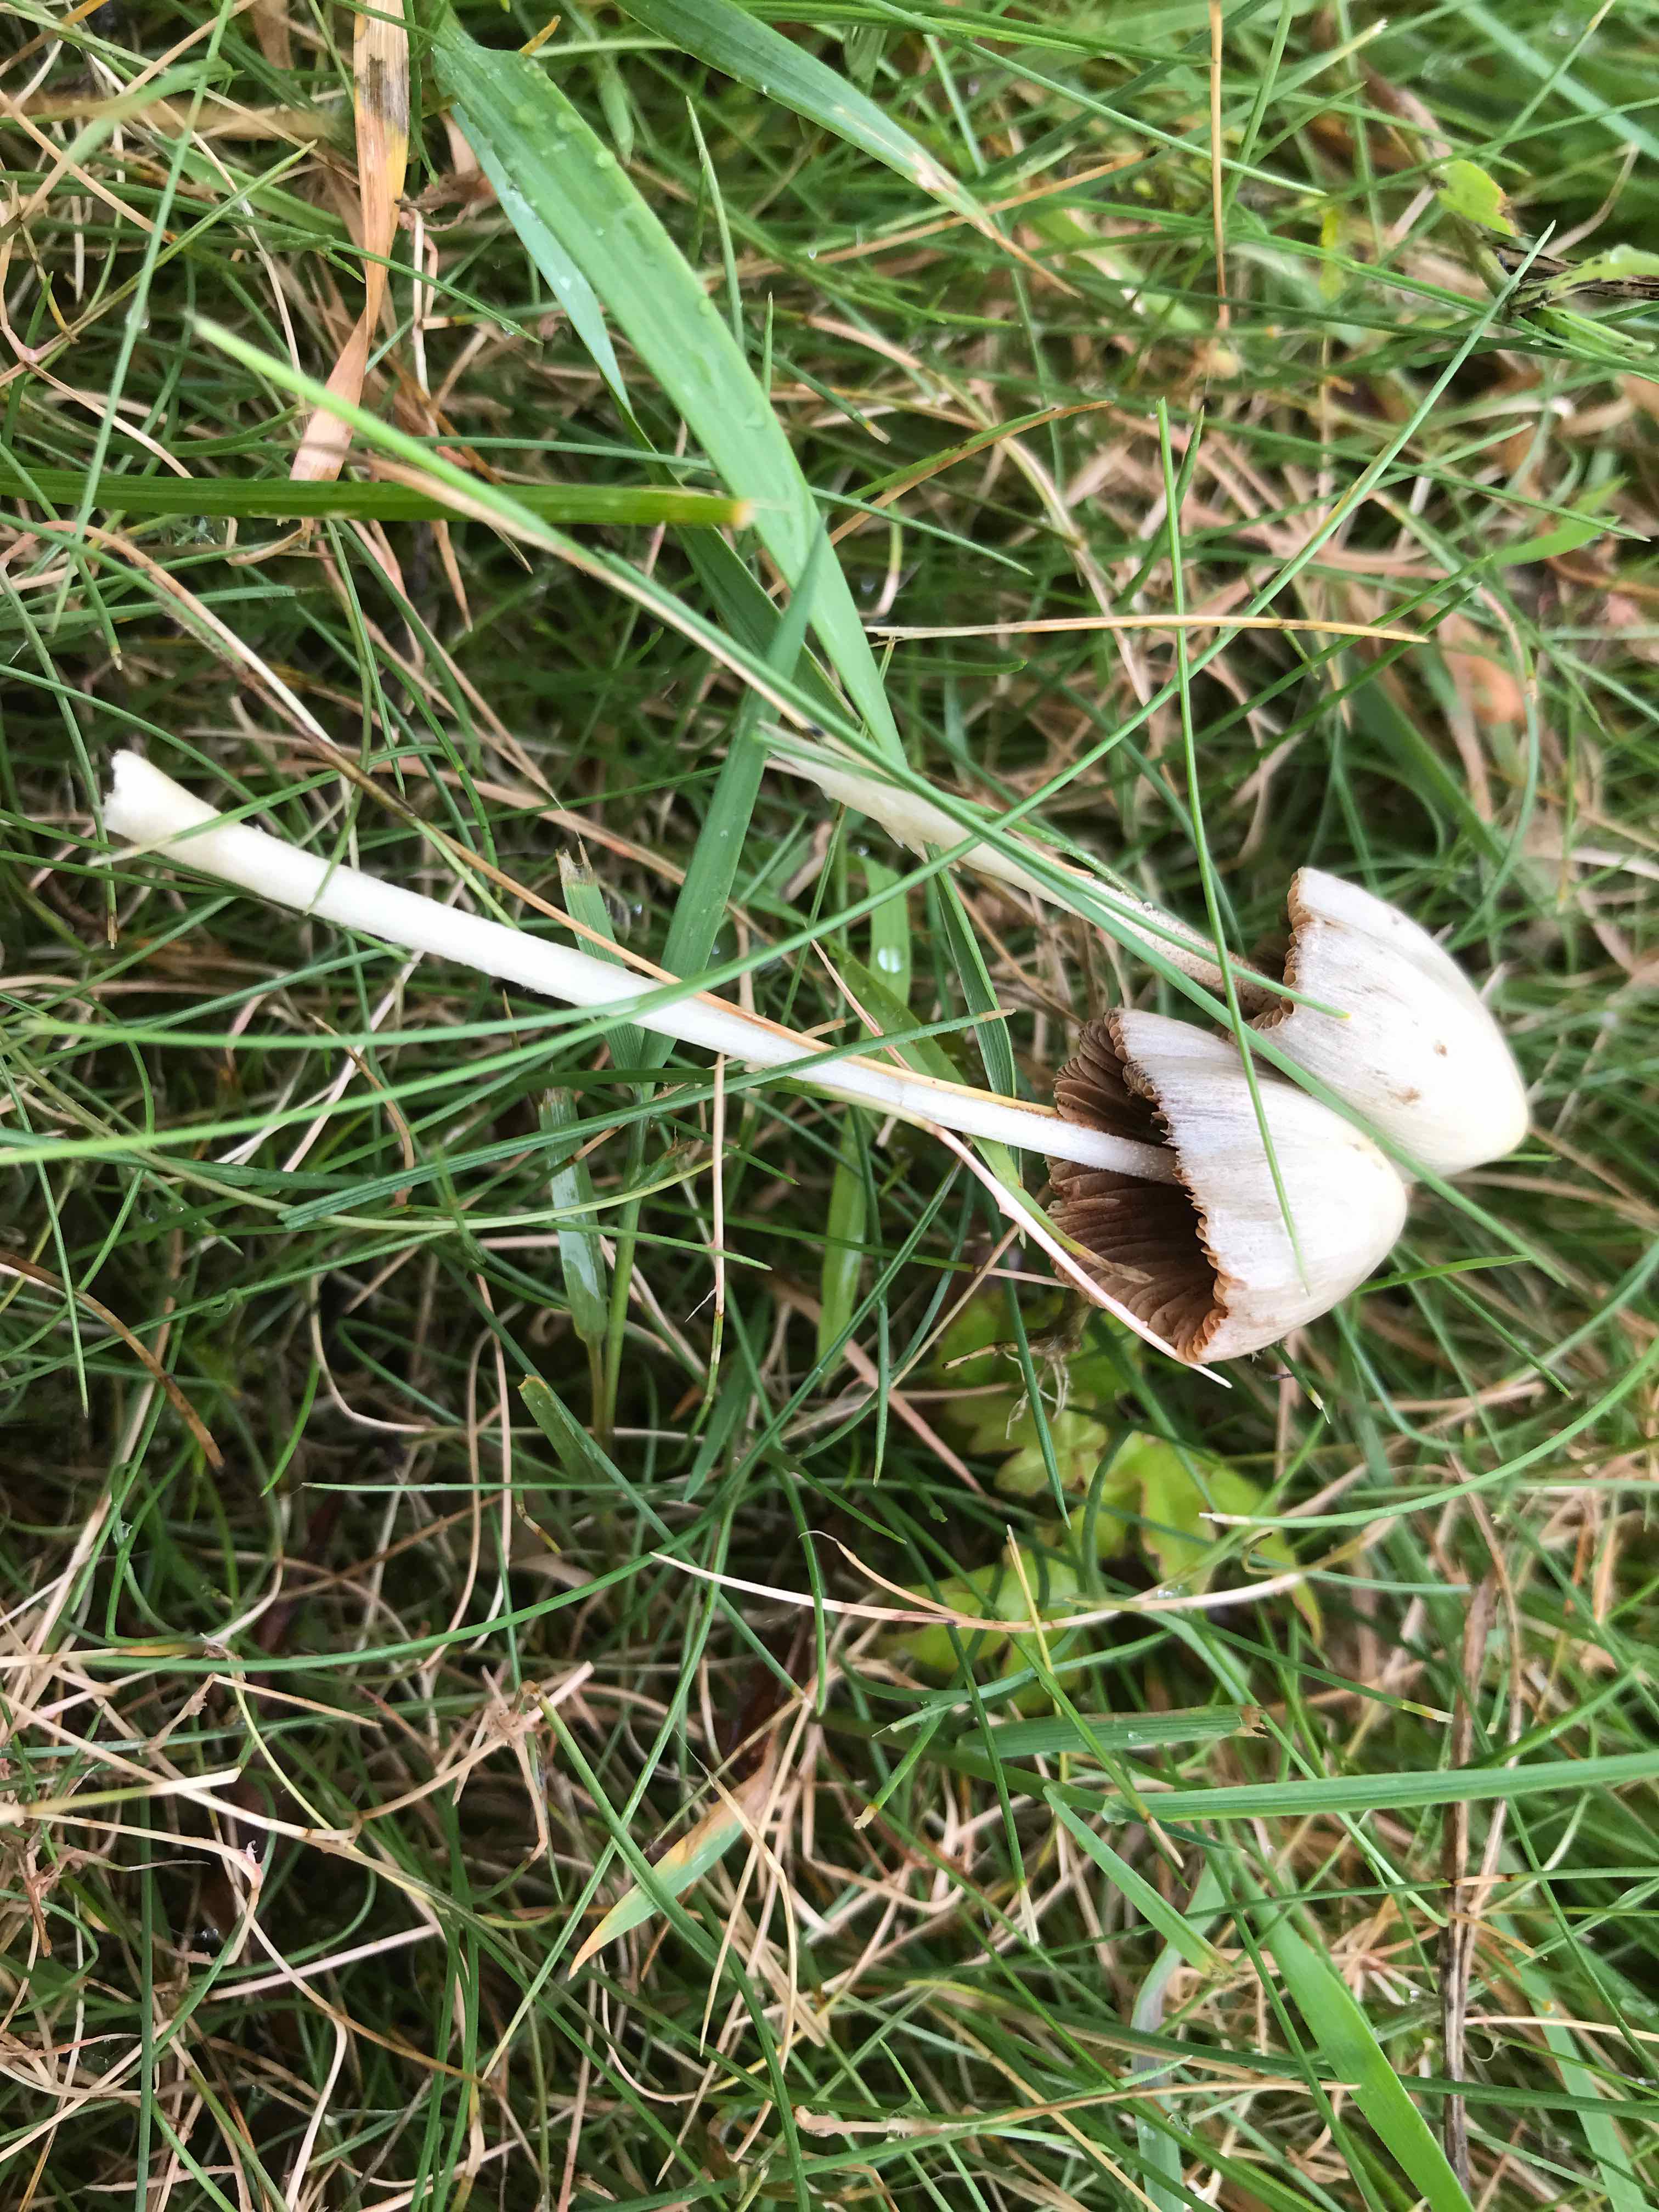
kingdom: Fungi
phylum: Basidiomycota
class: Agaricomycetes
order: Agaricales
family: Bolbitiaceae
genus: Conocybe
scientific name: Conocybe apala
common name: mælkehvid keglehat
